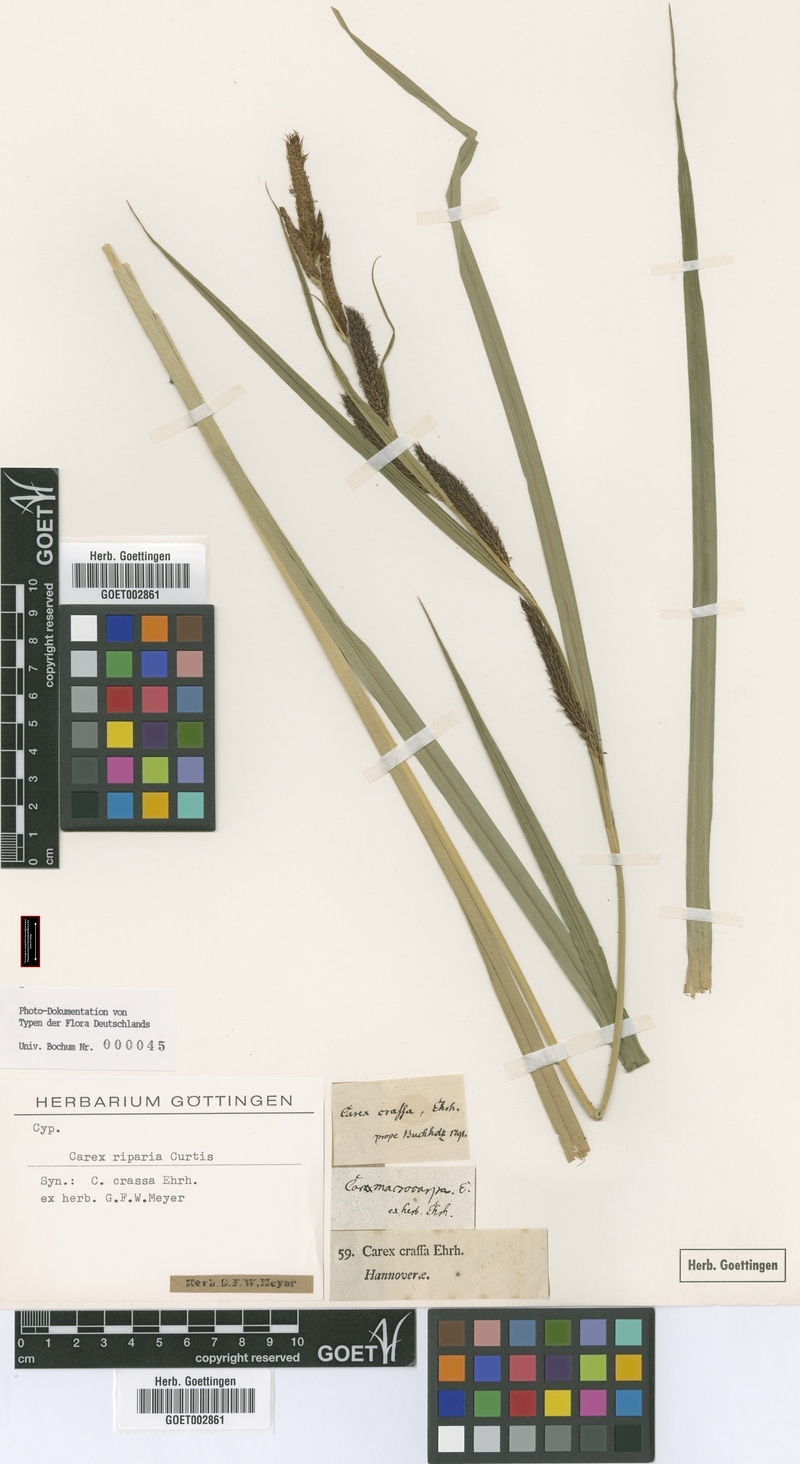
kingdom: Plantae
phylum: Tracheophyta
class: Liliopsida
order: Poales
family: Cyperaceae
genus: Carex
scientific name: Carex riparia
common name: Greater pond-sedge
